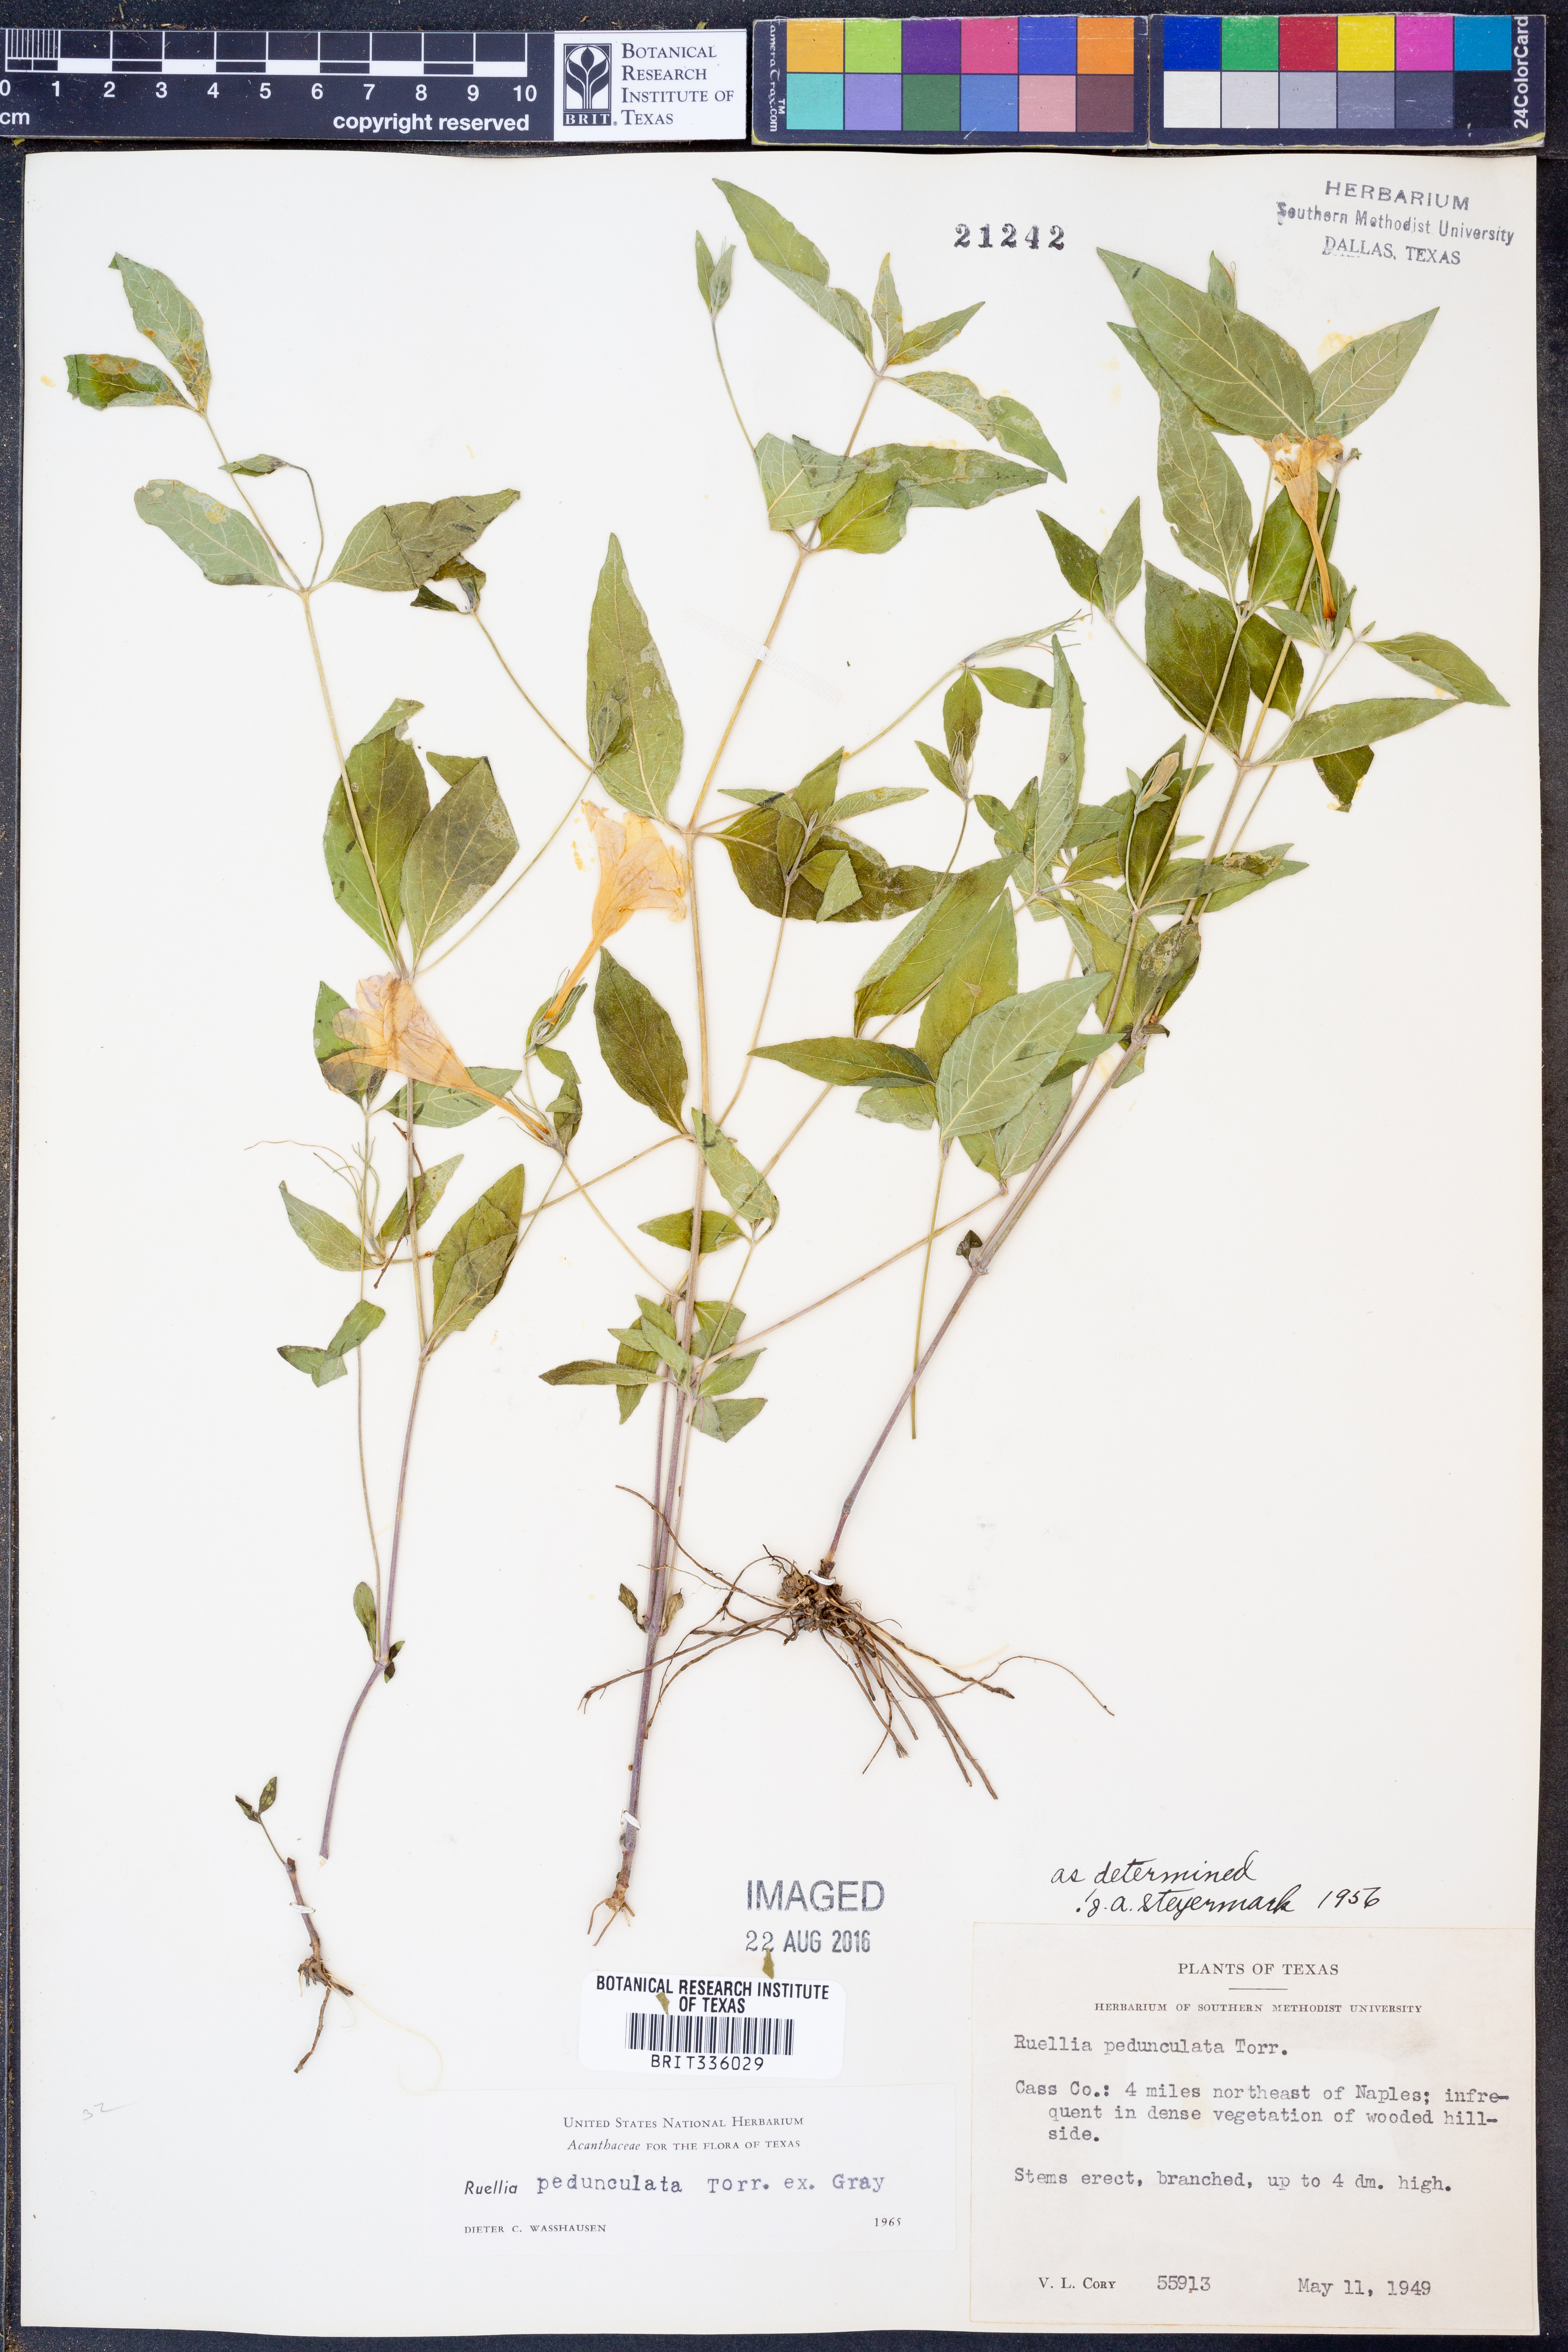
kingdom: Plantae
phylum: Tracheophyta
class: Magnoliopsida
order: Lamiales
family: Acanthaceae
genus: Ruellia
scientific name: Ruellia pedunculata
